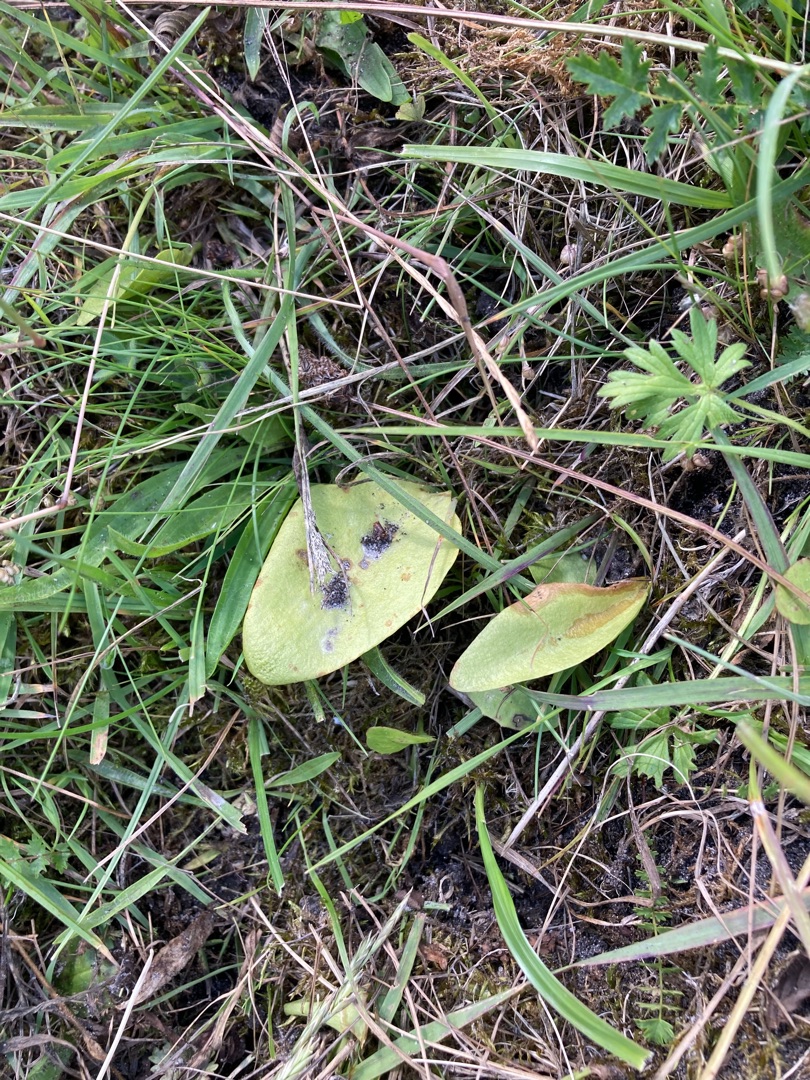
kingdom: Plantae
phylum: Tracheophyta
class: Polypodiopsida
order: Ophioglossales
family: Ophioglossaceae
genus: Ophioglossum
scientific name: Ophioglossum vulgatum
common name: Slangetunge
